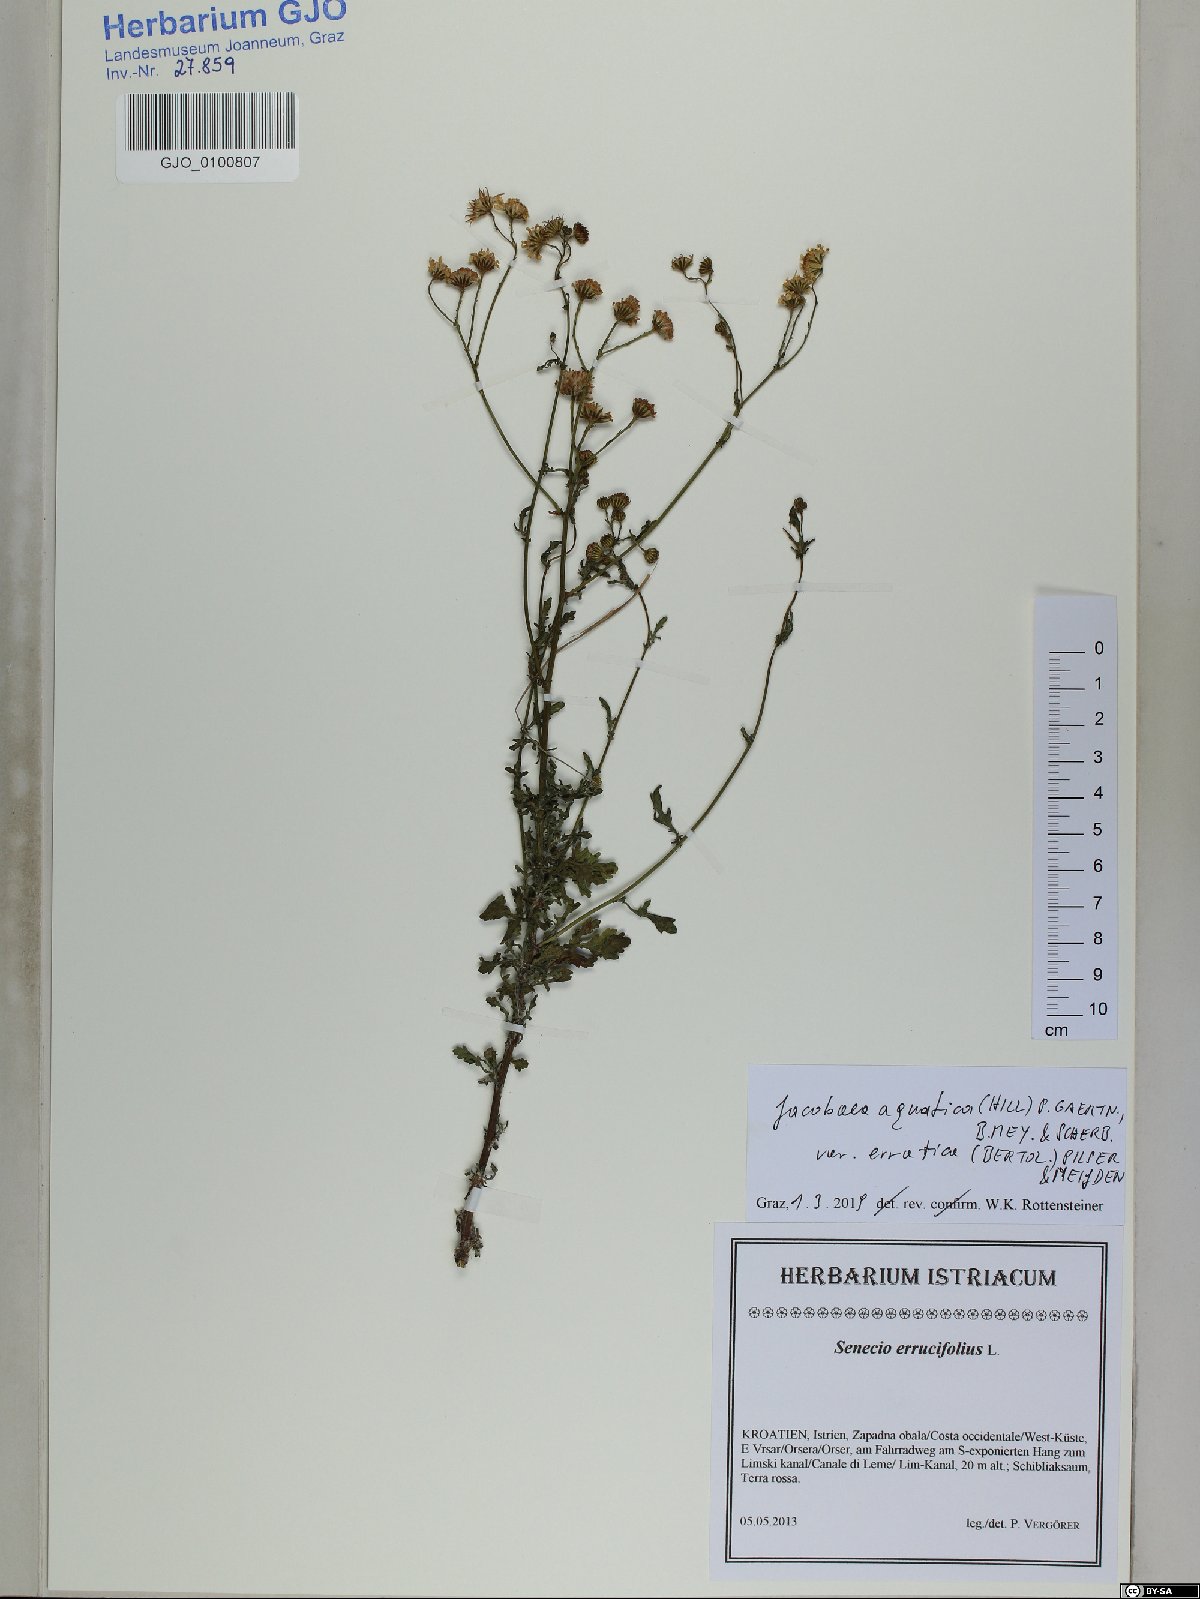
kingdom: Plantae
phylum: Tracheophyta
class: Magnoliopsida
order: Asterales
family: Asteraceae
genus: Jacobaea
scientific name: Jacobaea erratica
